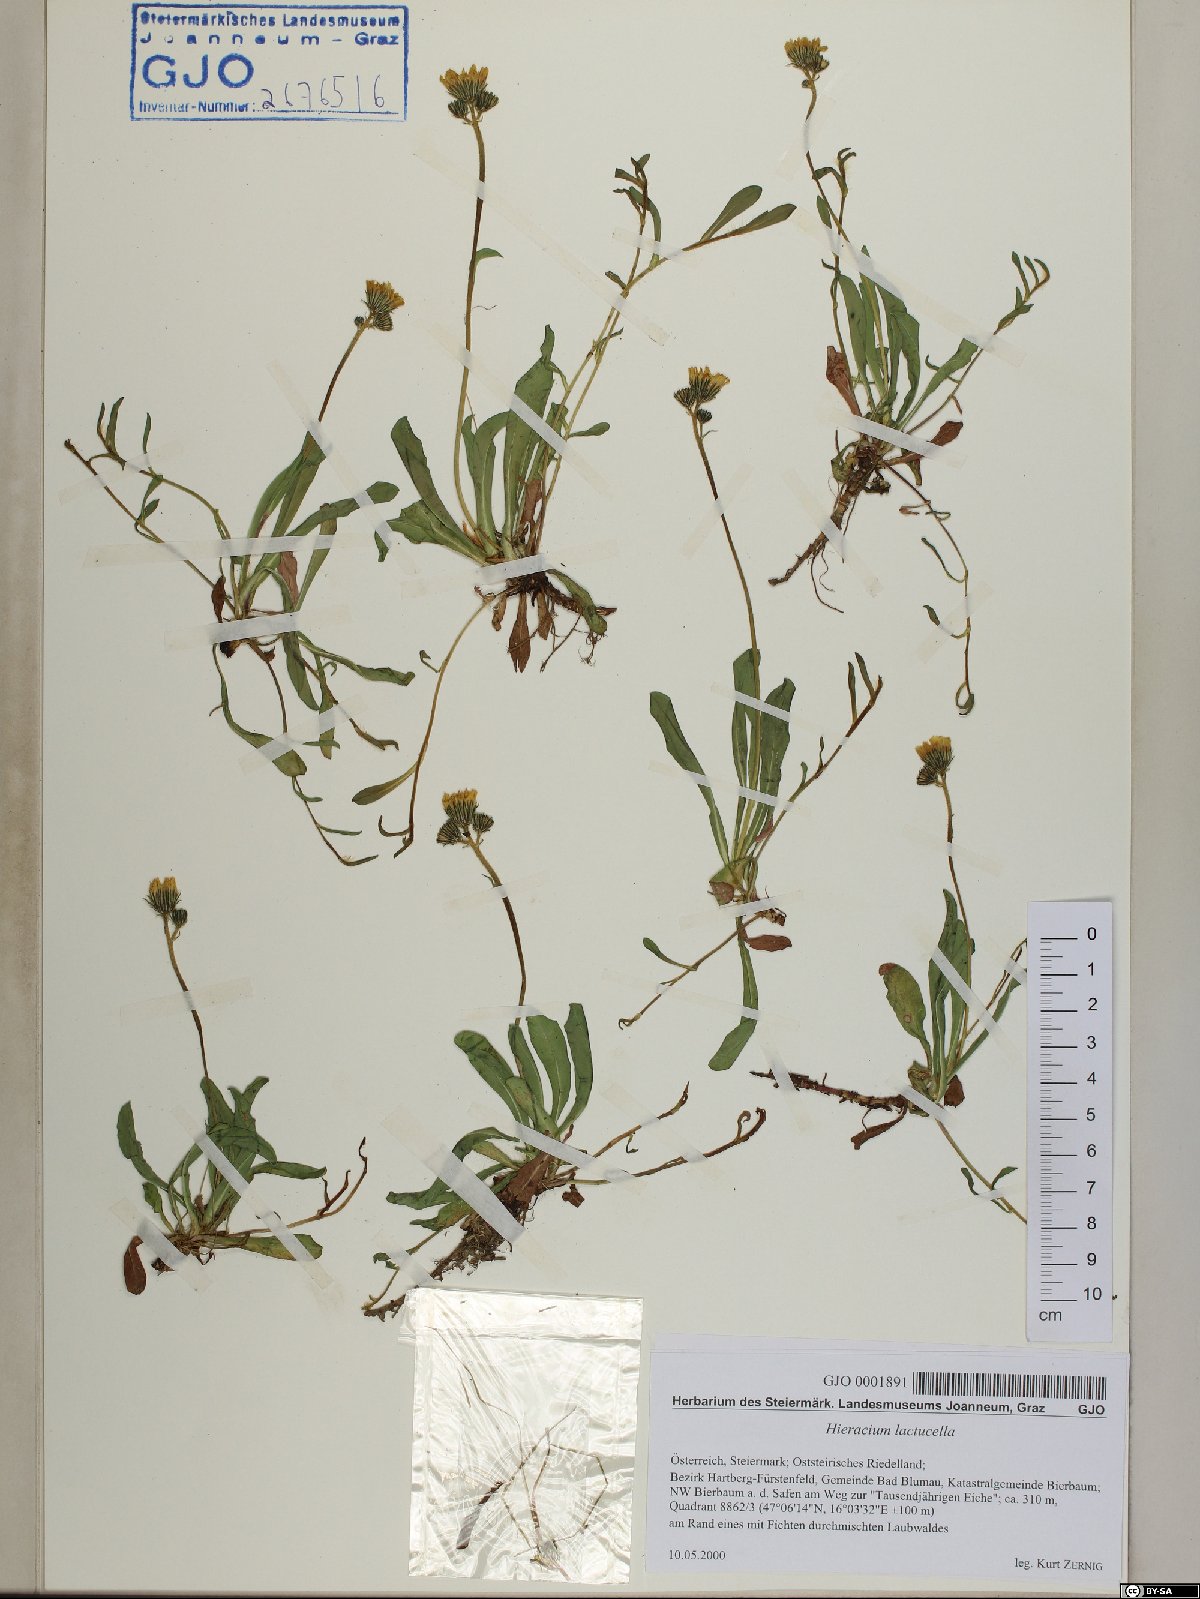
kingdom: Plantae
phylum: Tracheophyta
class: Magnoliopsida
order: Asterales
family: Asteraceae
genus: Pilosella
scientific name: Pilosella lactucella
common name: Glaucous fox-and-cubs
